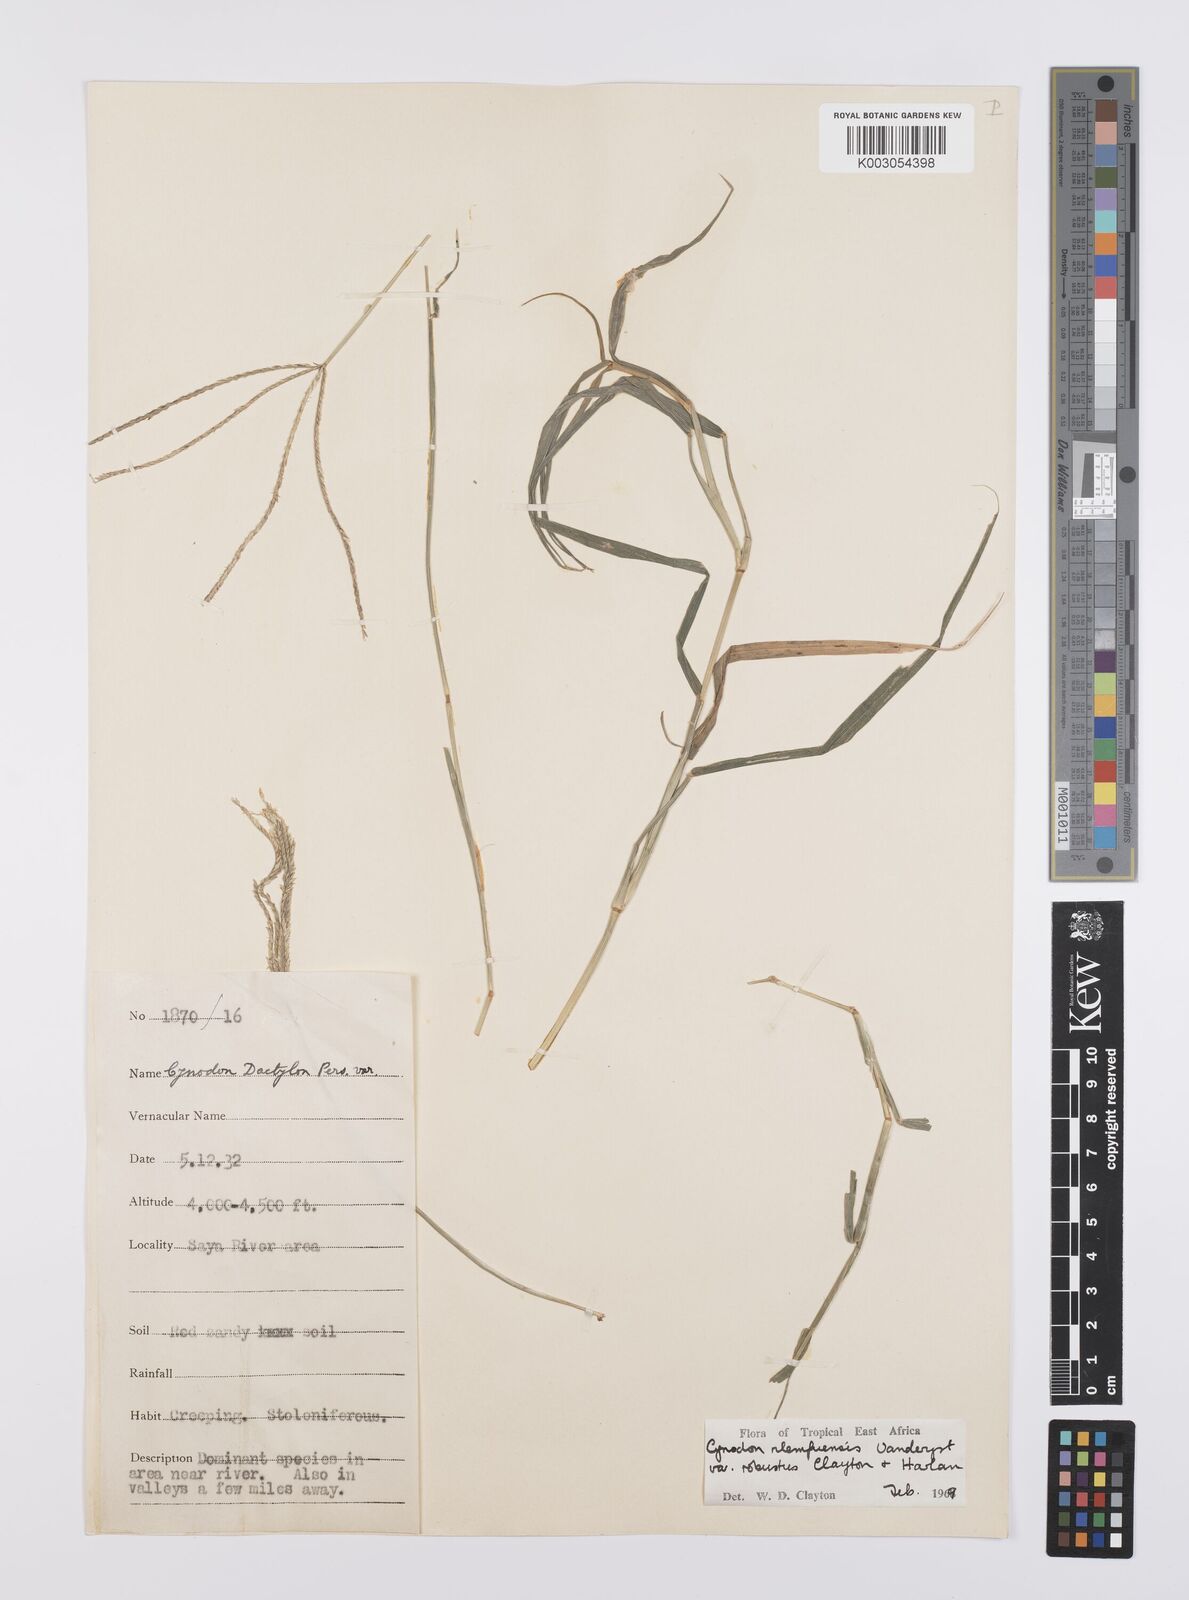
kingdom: Plantae
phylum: Tracheophyta
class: Liliopsida
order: Poales
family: Poaceae
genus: Cynodon
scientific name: Cynodon nlemfuensis
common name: African bermudagrass
